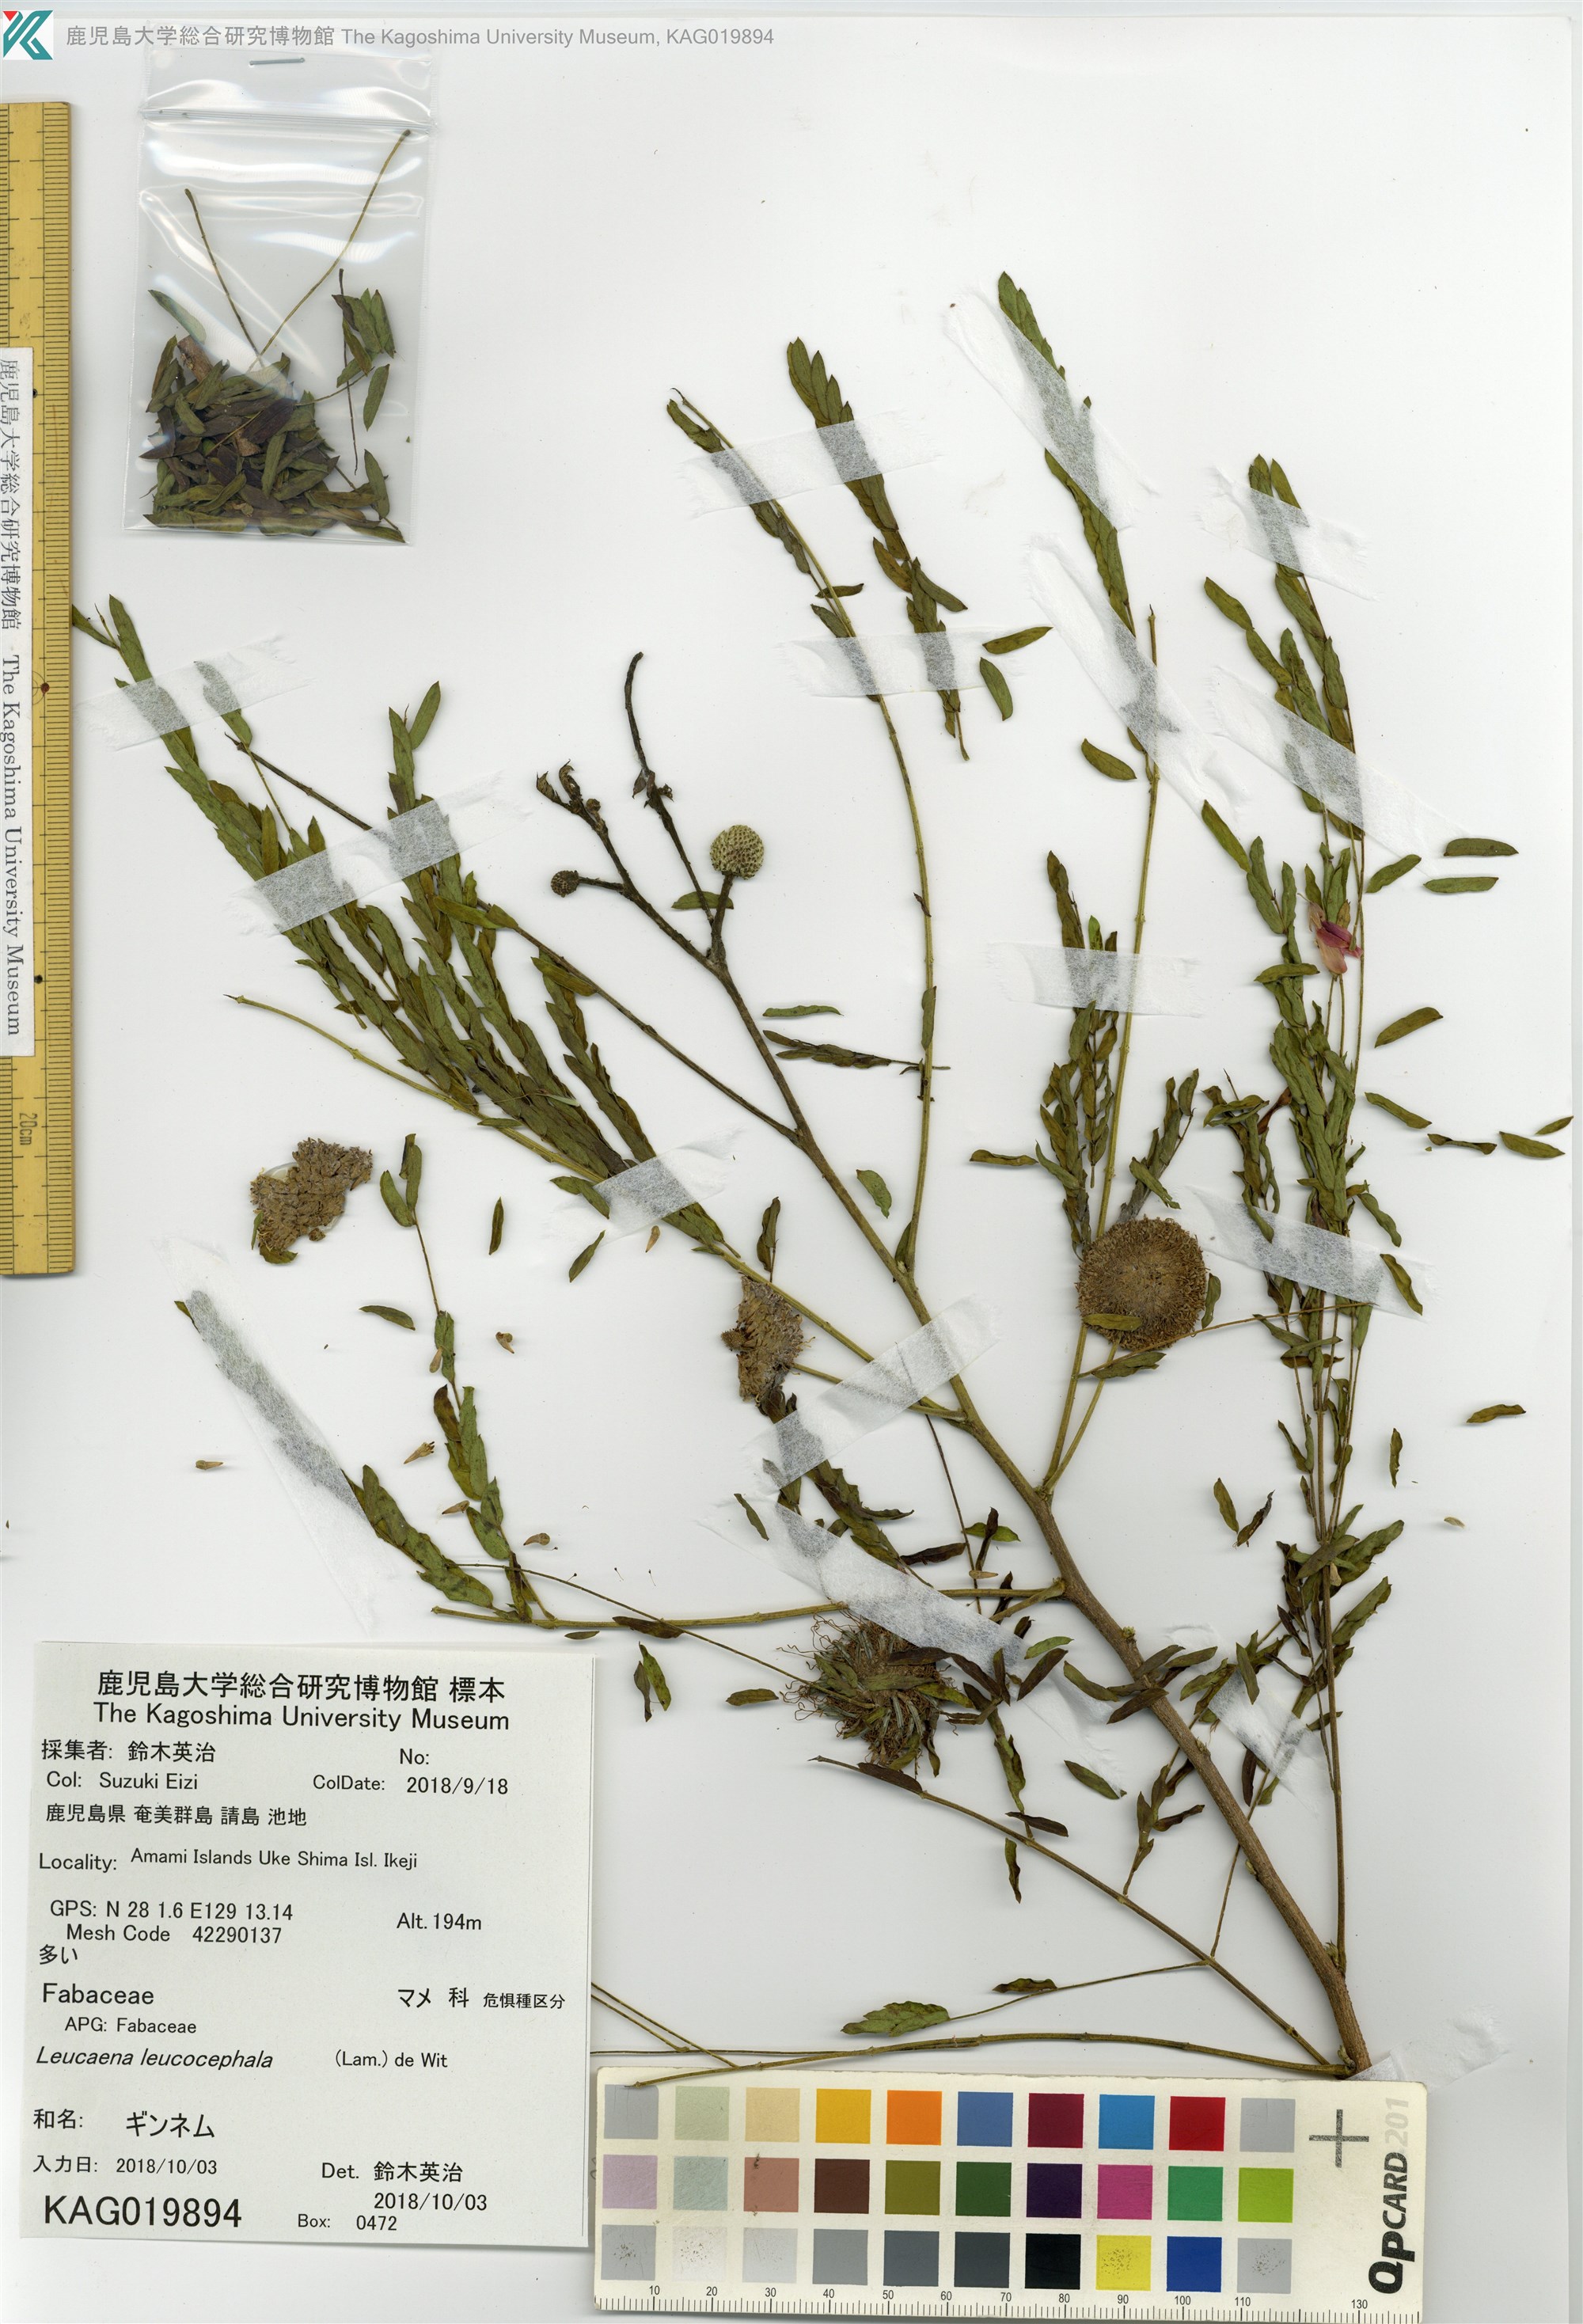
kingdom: Plantae
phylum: Tracheophyta
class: Magnoliopsida
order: Fabales
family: Fabaceae
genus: Leucaena
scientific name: Leucaena leucocephala
